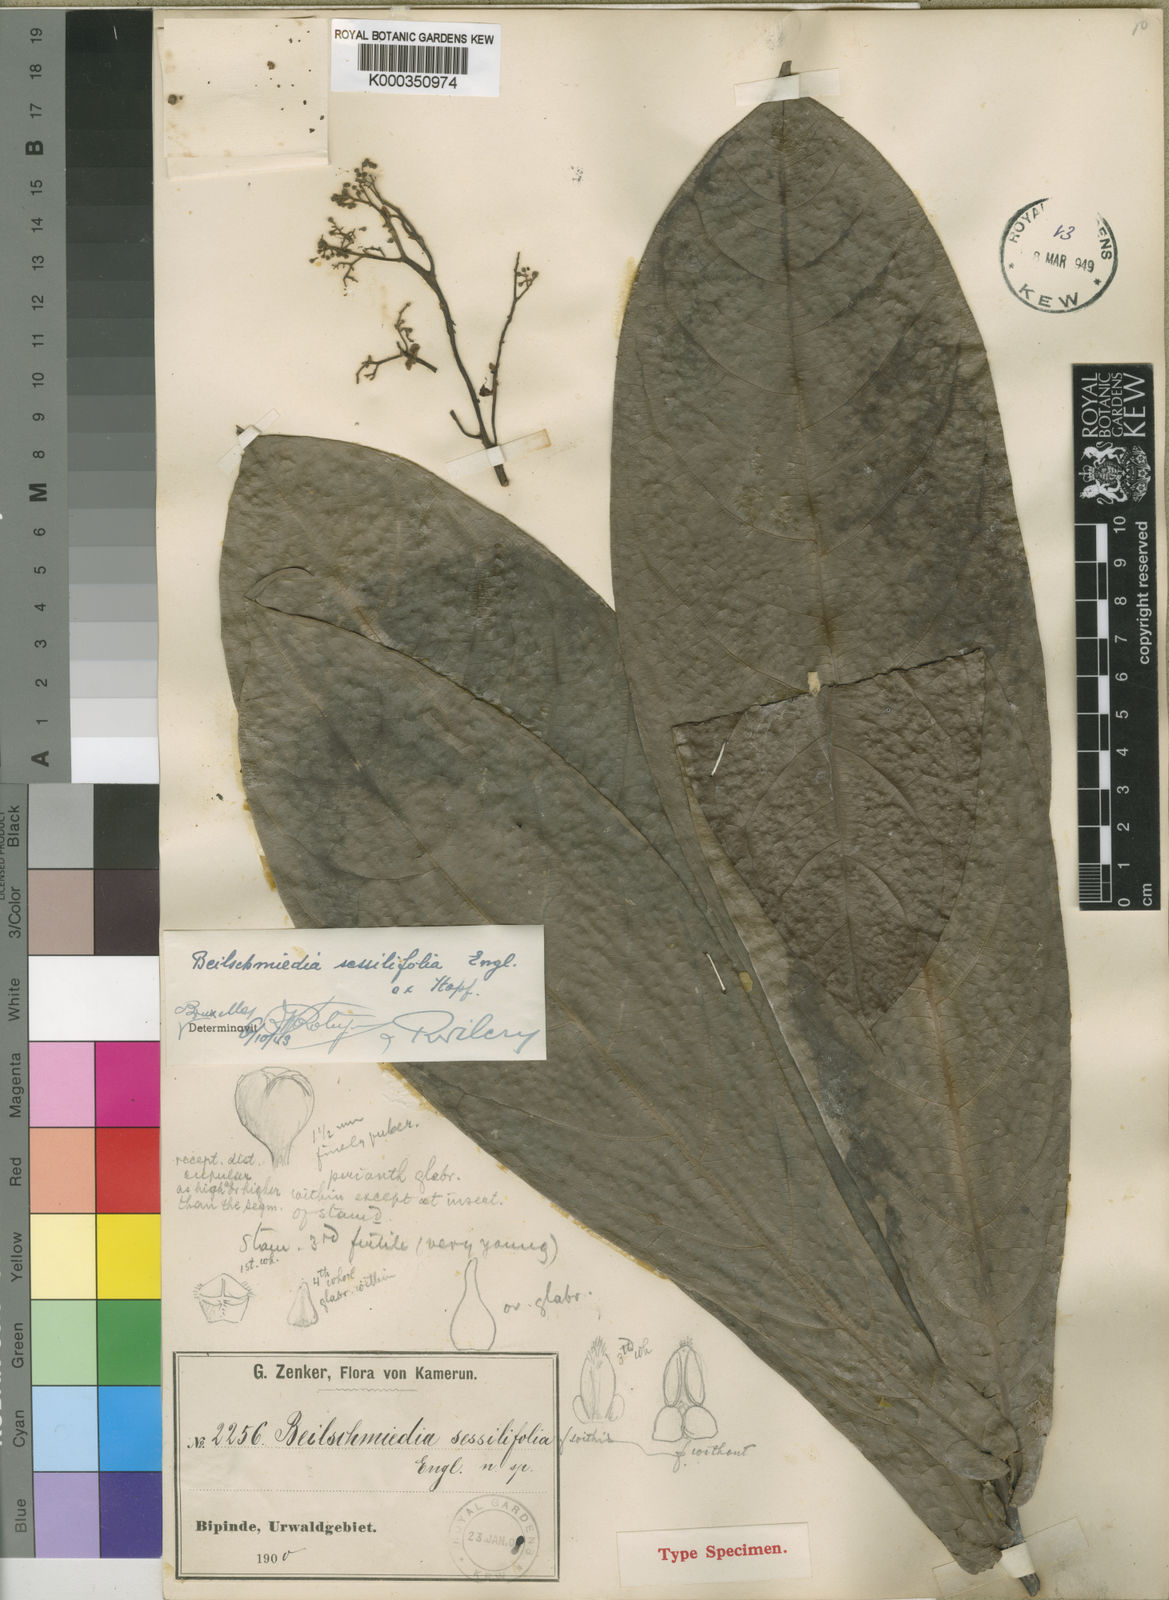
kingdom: Plantae
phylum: Tracheophyta
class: Magnoliopsida
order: Laurales
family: Lauraceae
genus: Beilschmiedia
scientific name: Beilschmiedia
